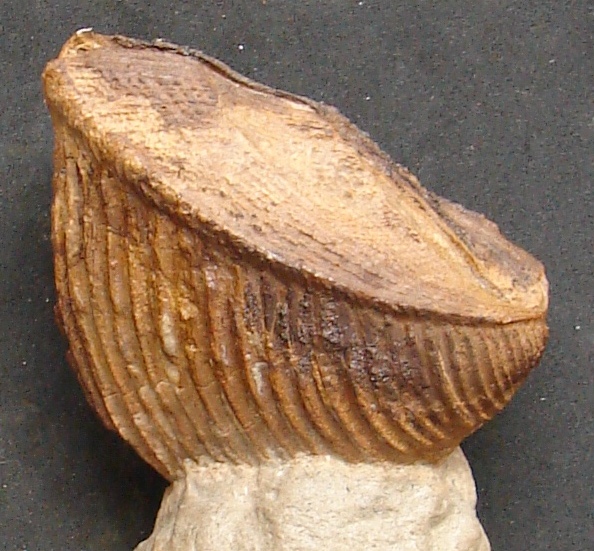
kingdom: Animalia
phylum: Mollusca
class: Bivalvia
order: Trigoniida
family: Trigoniidae
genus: Trigonia
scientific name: Trigonia similis
